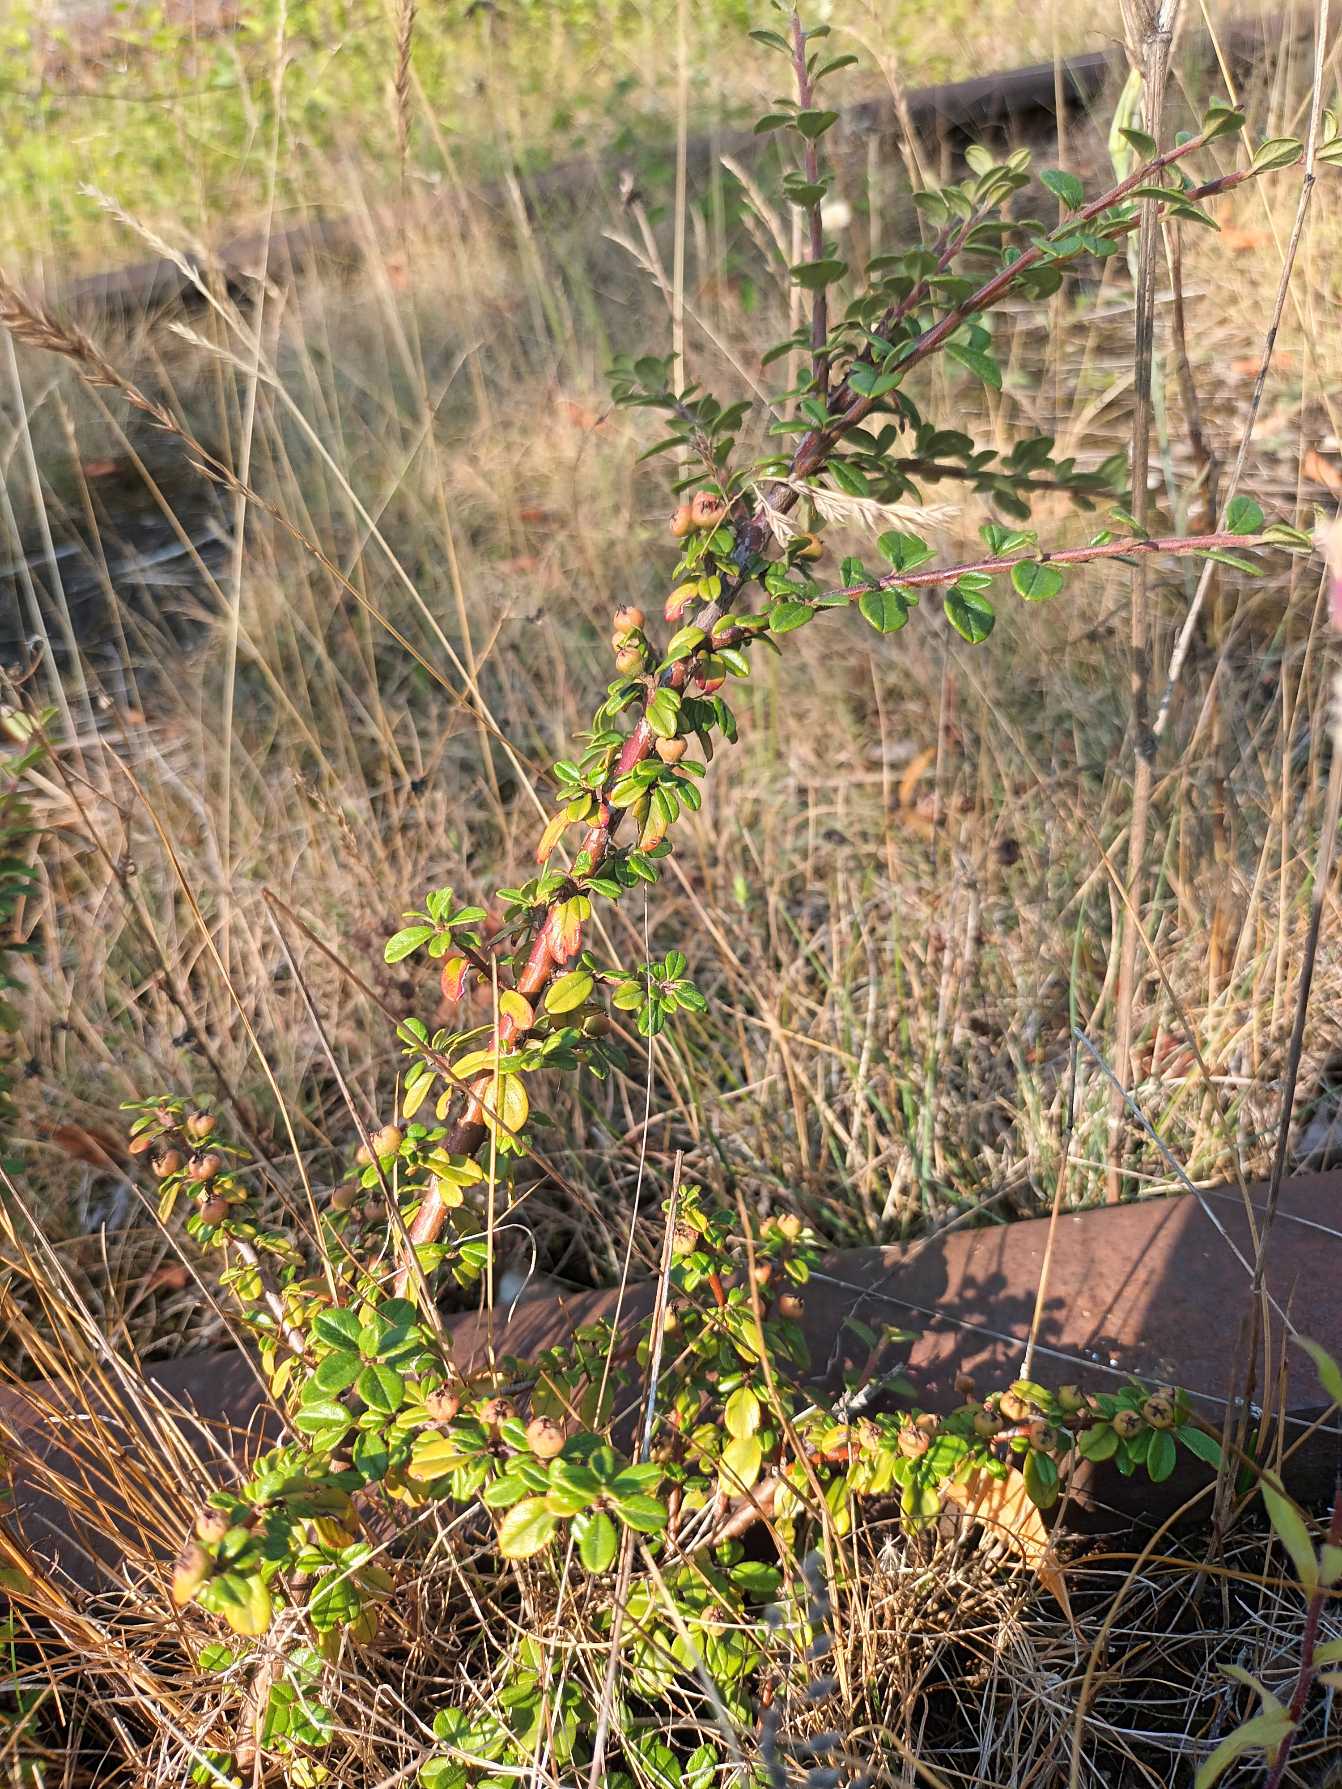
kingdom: Plantae
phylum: Tracheophyta
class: Magnoliopsida
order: Rosales
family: Rosaceae
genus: Cotoneaster
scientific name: Cotoneaster microphyllus
